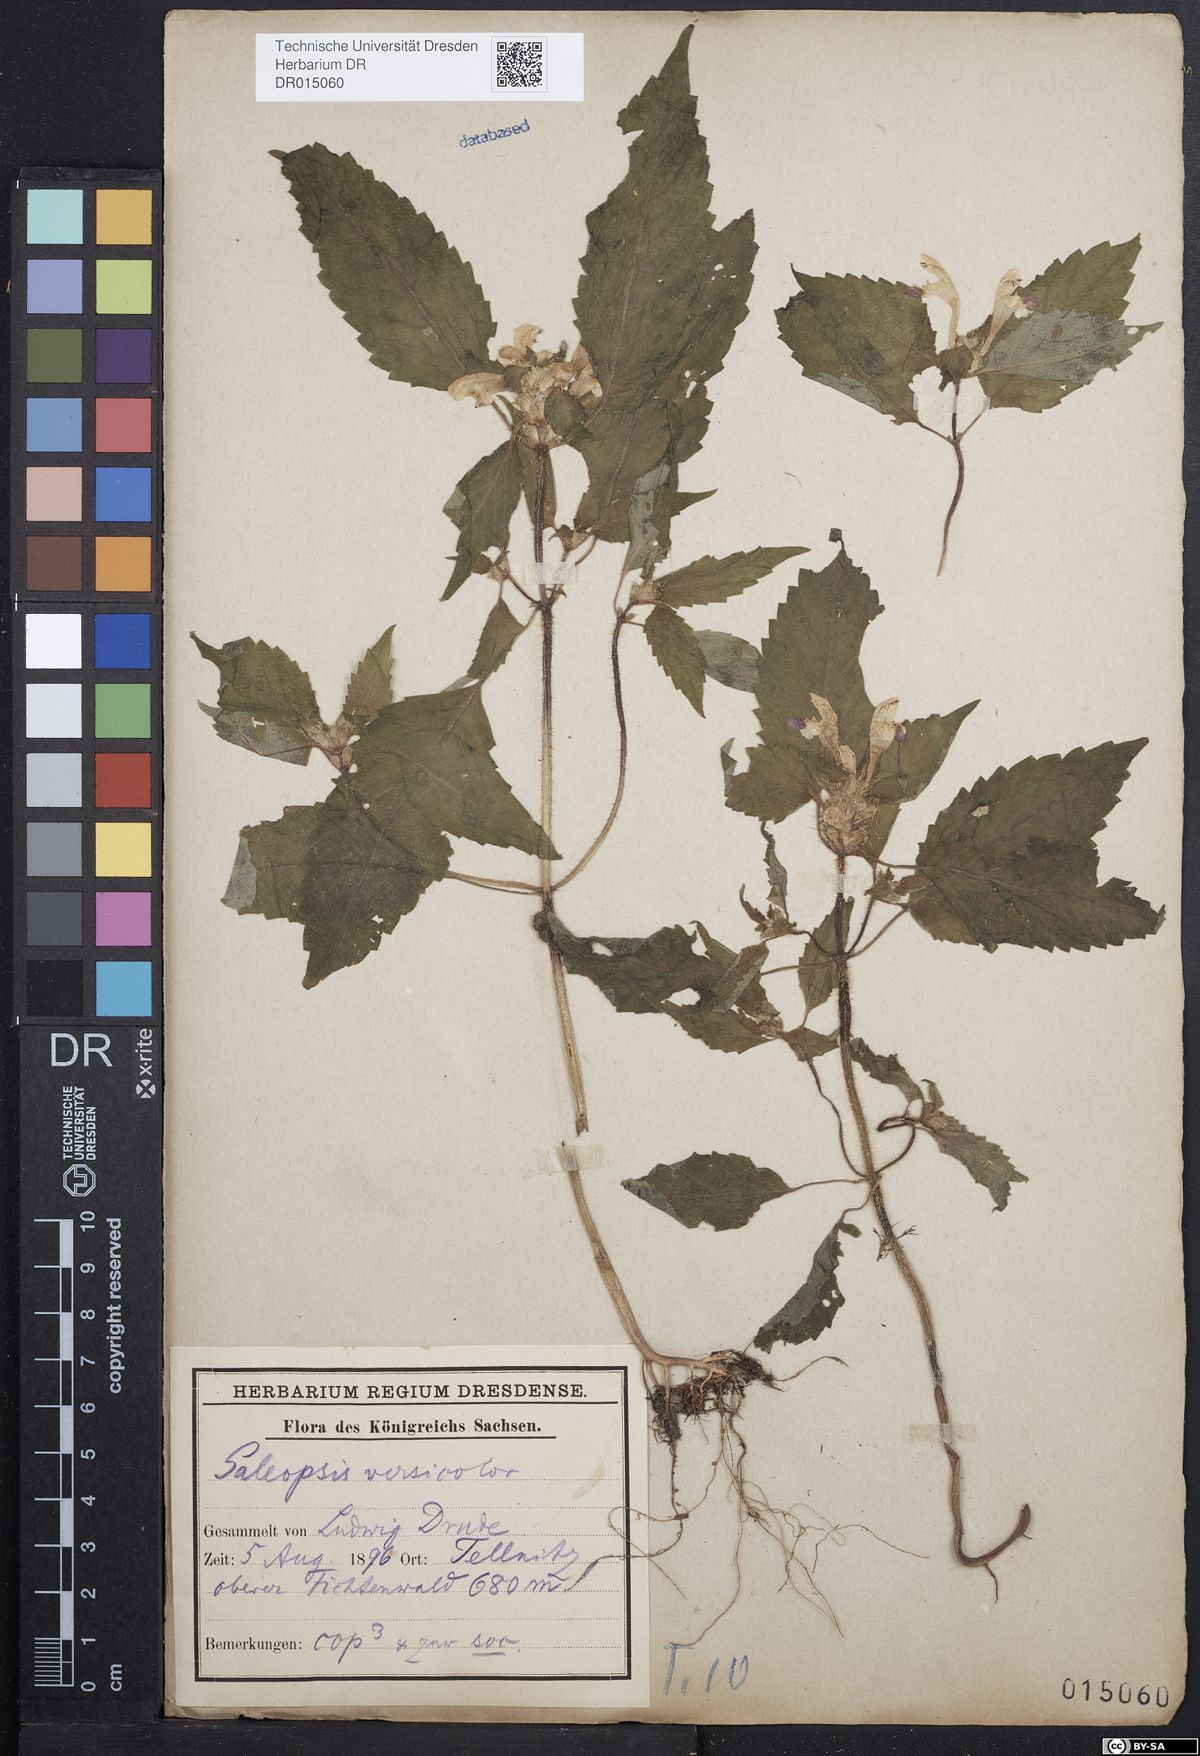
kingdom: Plantae
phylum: Tracheophyta
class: Magnoliopsida
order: Lamiales
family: Lamiaceae
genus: Galeopsis
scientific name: Galeopsis speciosa
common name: Large-flowered hemp-nettle
